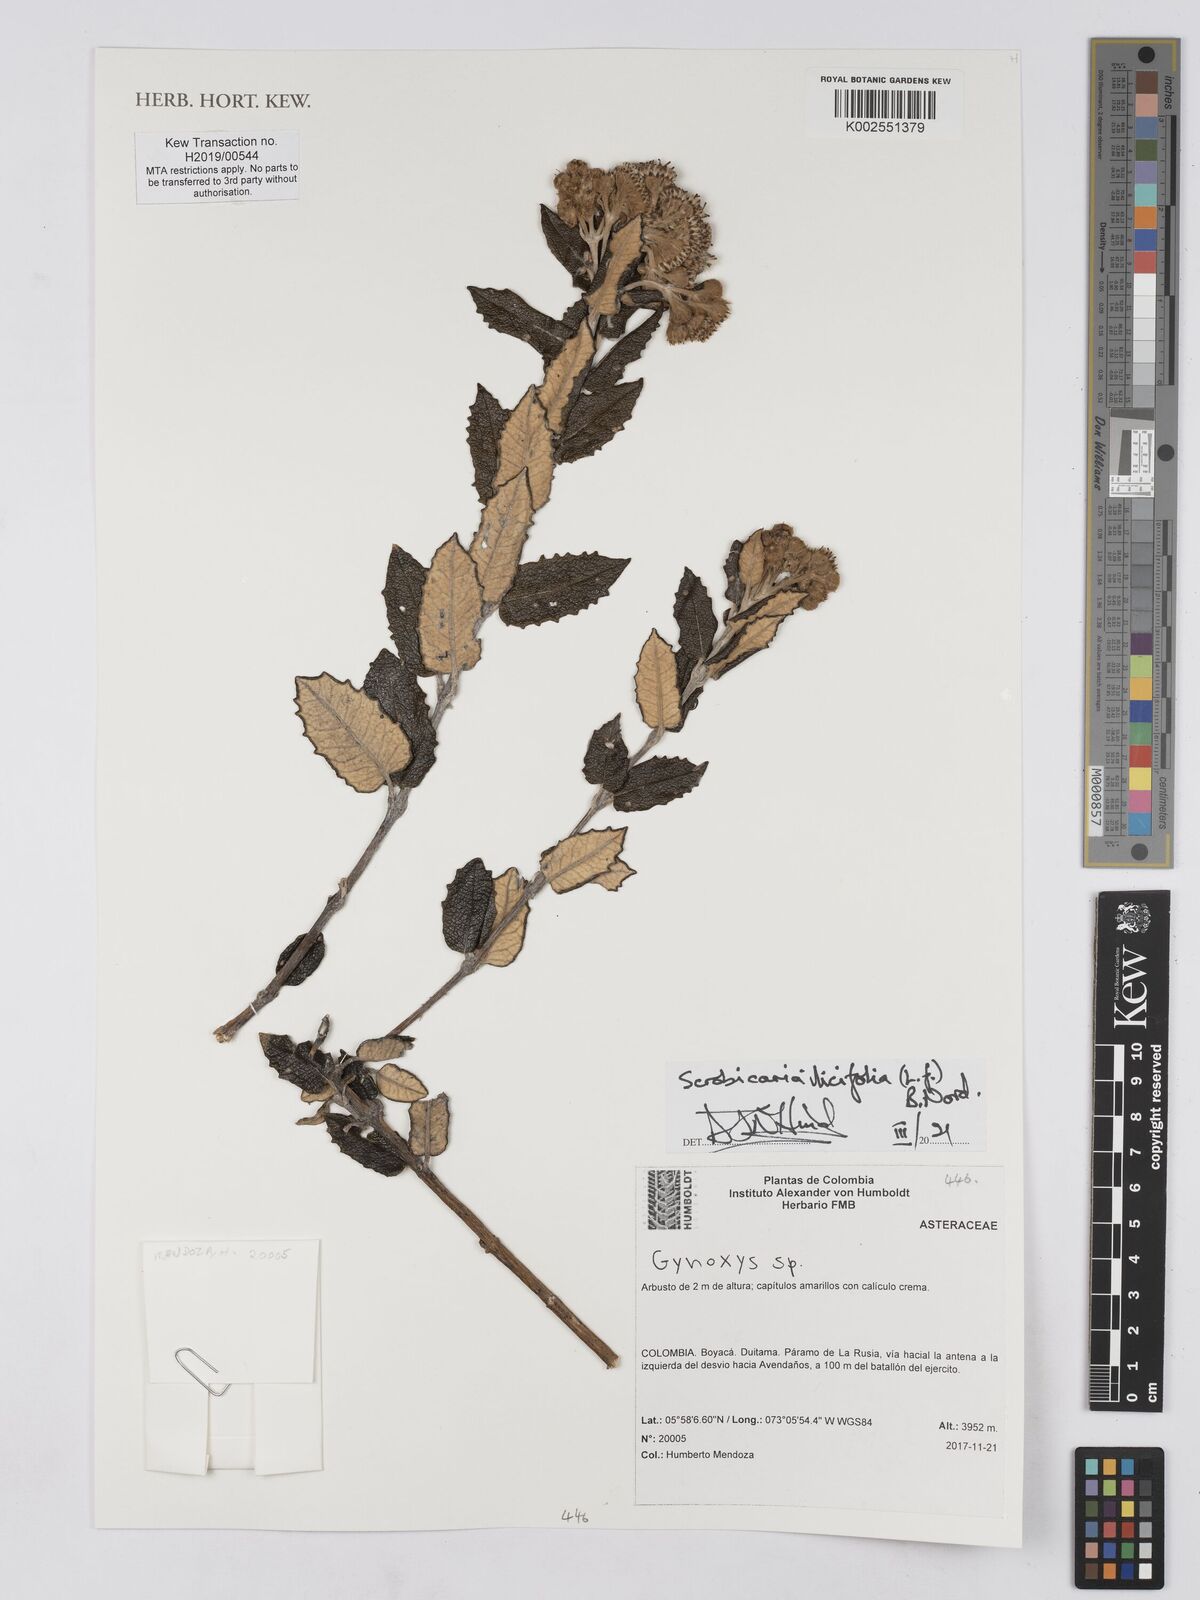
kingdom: Plantae
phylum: Tracheophyta
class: Magnoliopsida
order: Asterales
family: Asteraceae
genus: Scrobicaria
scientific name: Scrobicaria ilicifolia
